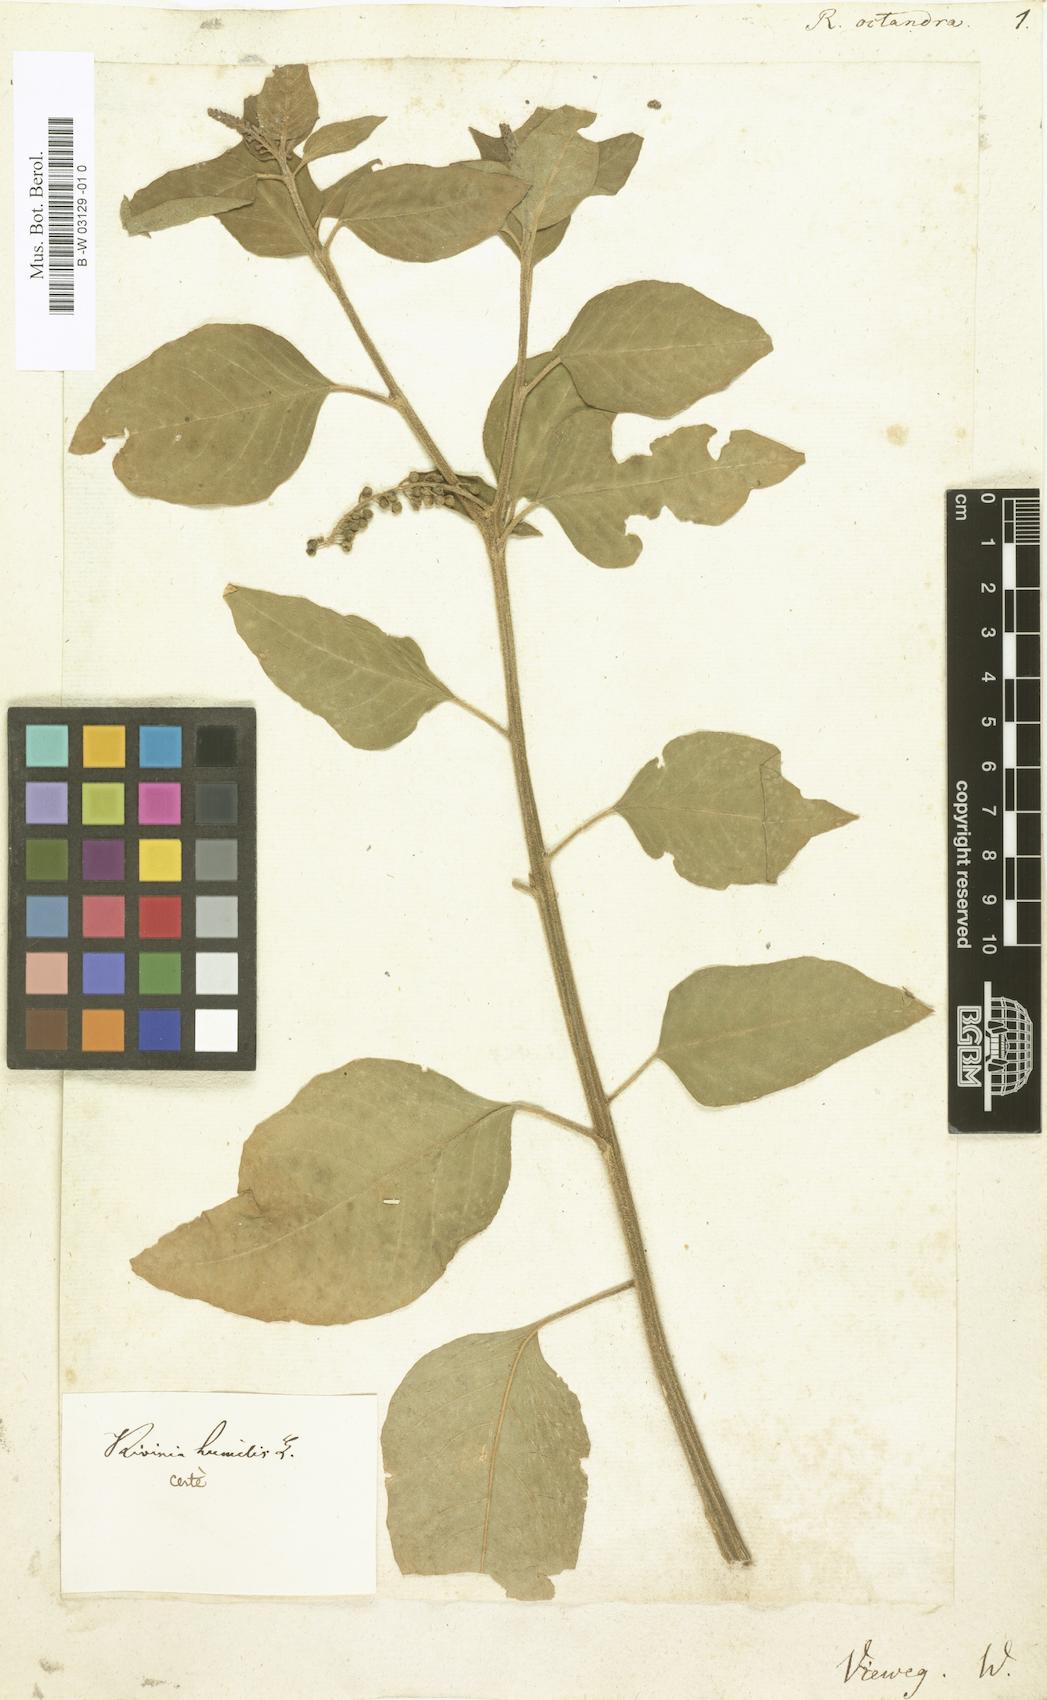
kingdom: Plantae
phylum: Tracheophyta
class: Magnoliopsida
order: Caryophyllales
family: Phytolaccaceae
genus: Trichostigma
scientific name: Trichostigma octandrum
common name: Basket wiss
